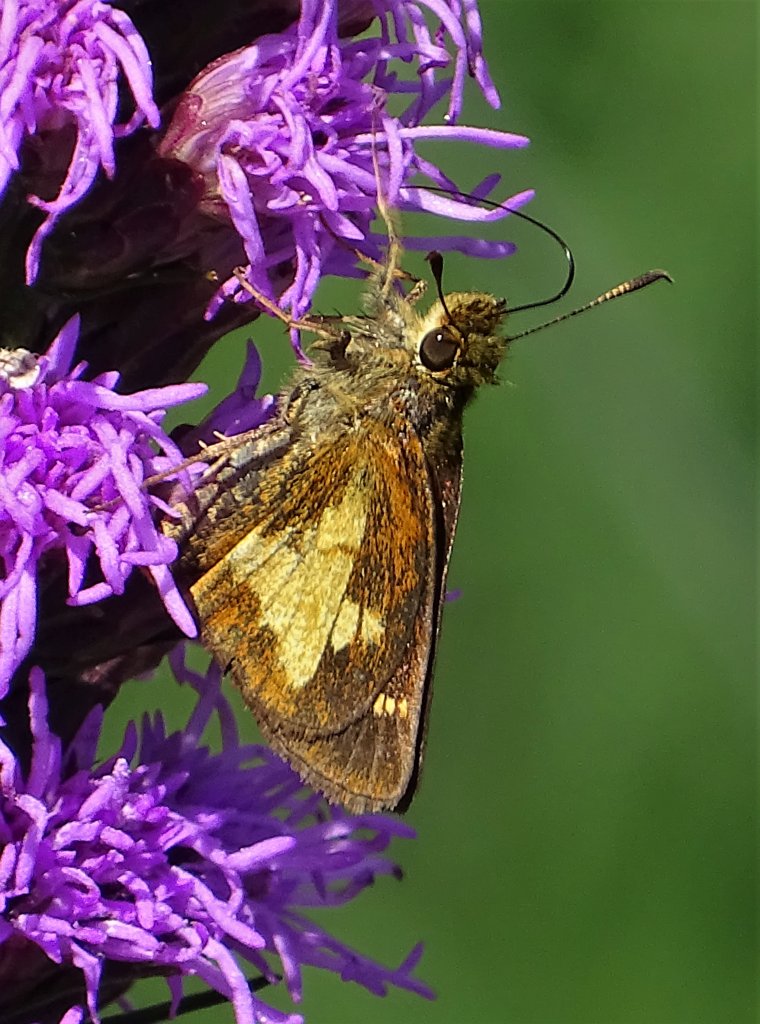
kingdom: Animalia
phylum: Arthropoda
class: Insecta
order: Lepidoptera
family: Hesperiidae
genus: Poanes
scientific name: Poanes massasoit
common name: Mulberry Wing
